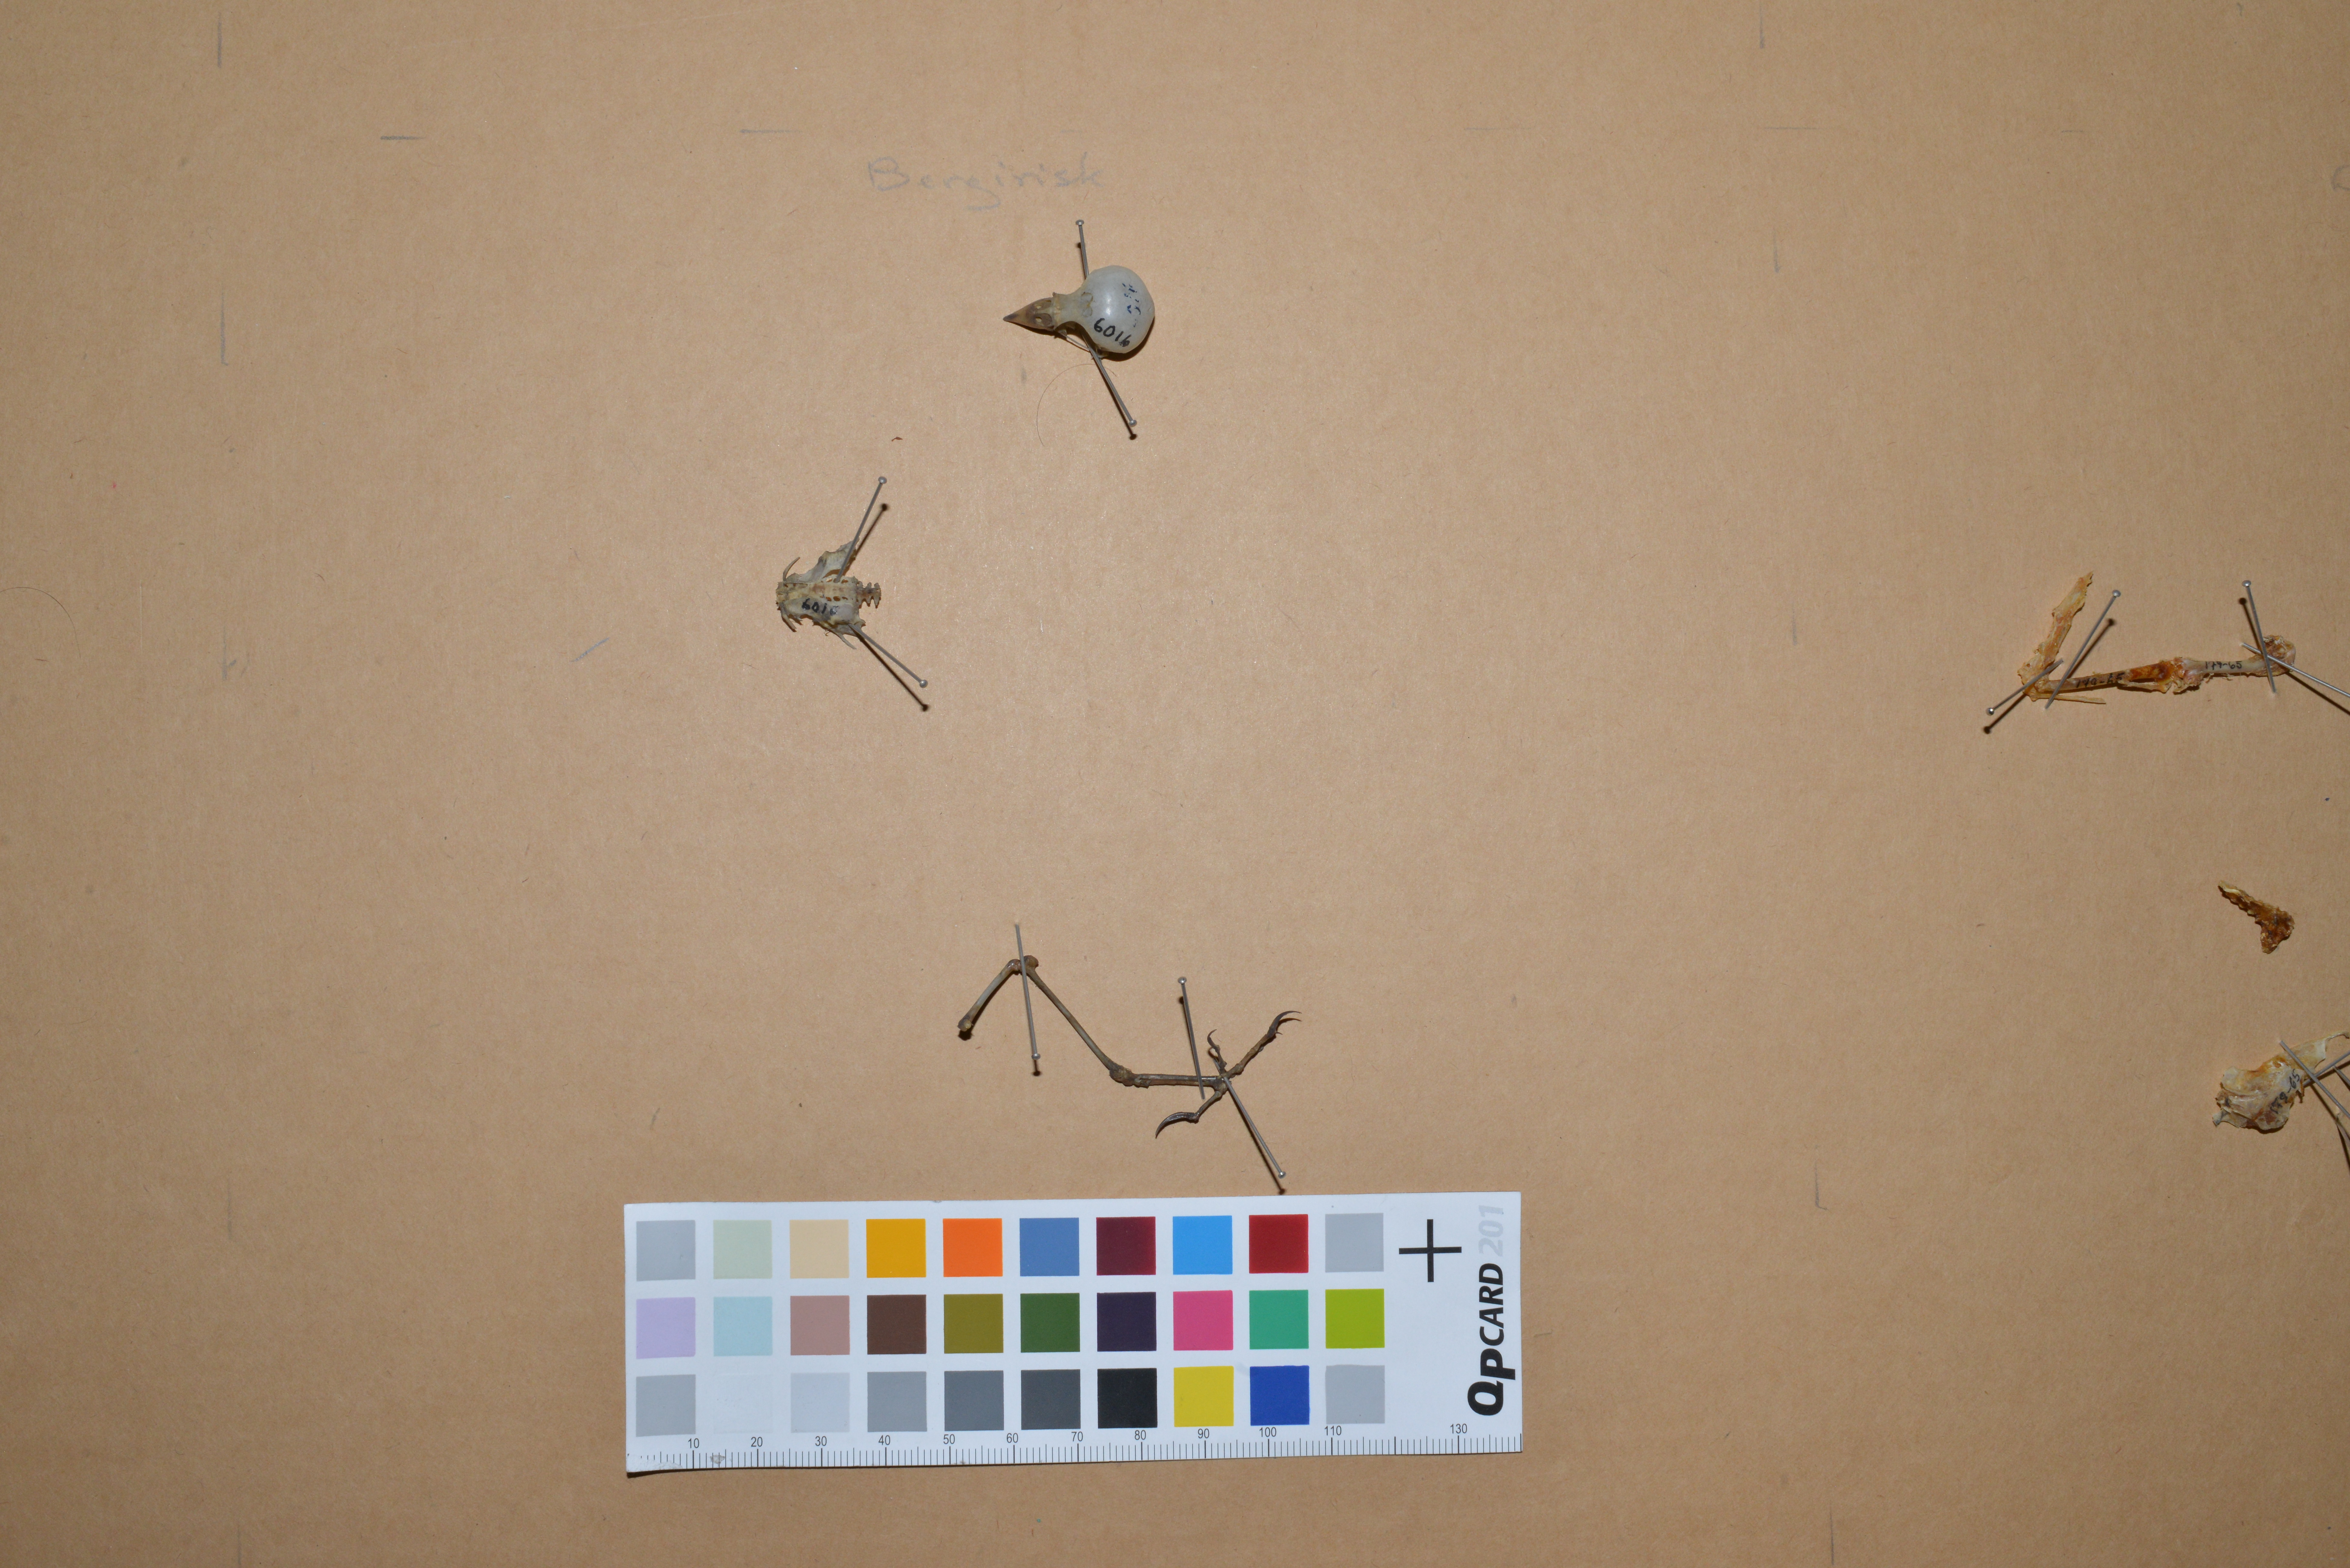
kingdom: Animalia
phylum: Chordata
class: Aves
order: Passeriformes
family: Fringillidae
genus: Linaria
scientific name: Linaria flavirostris
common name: Twite
